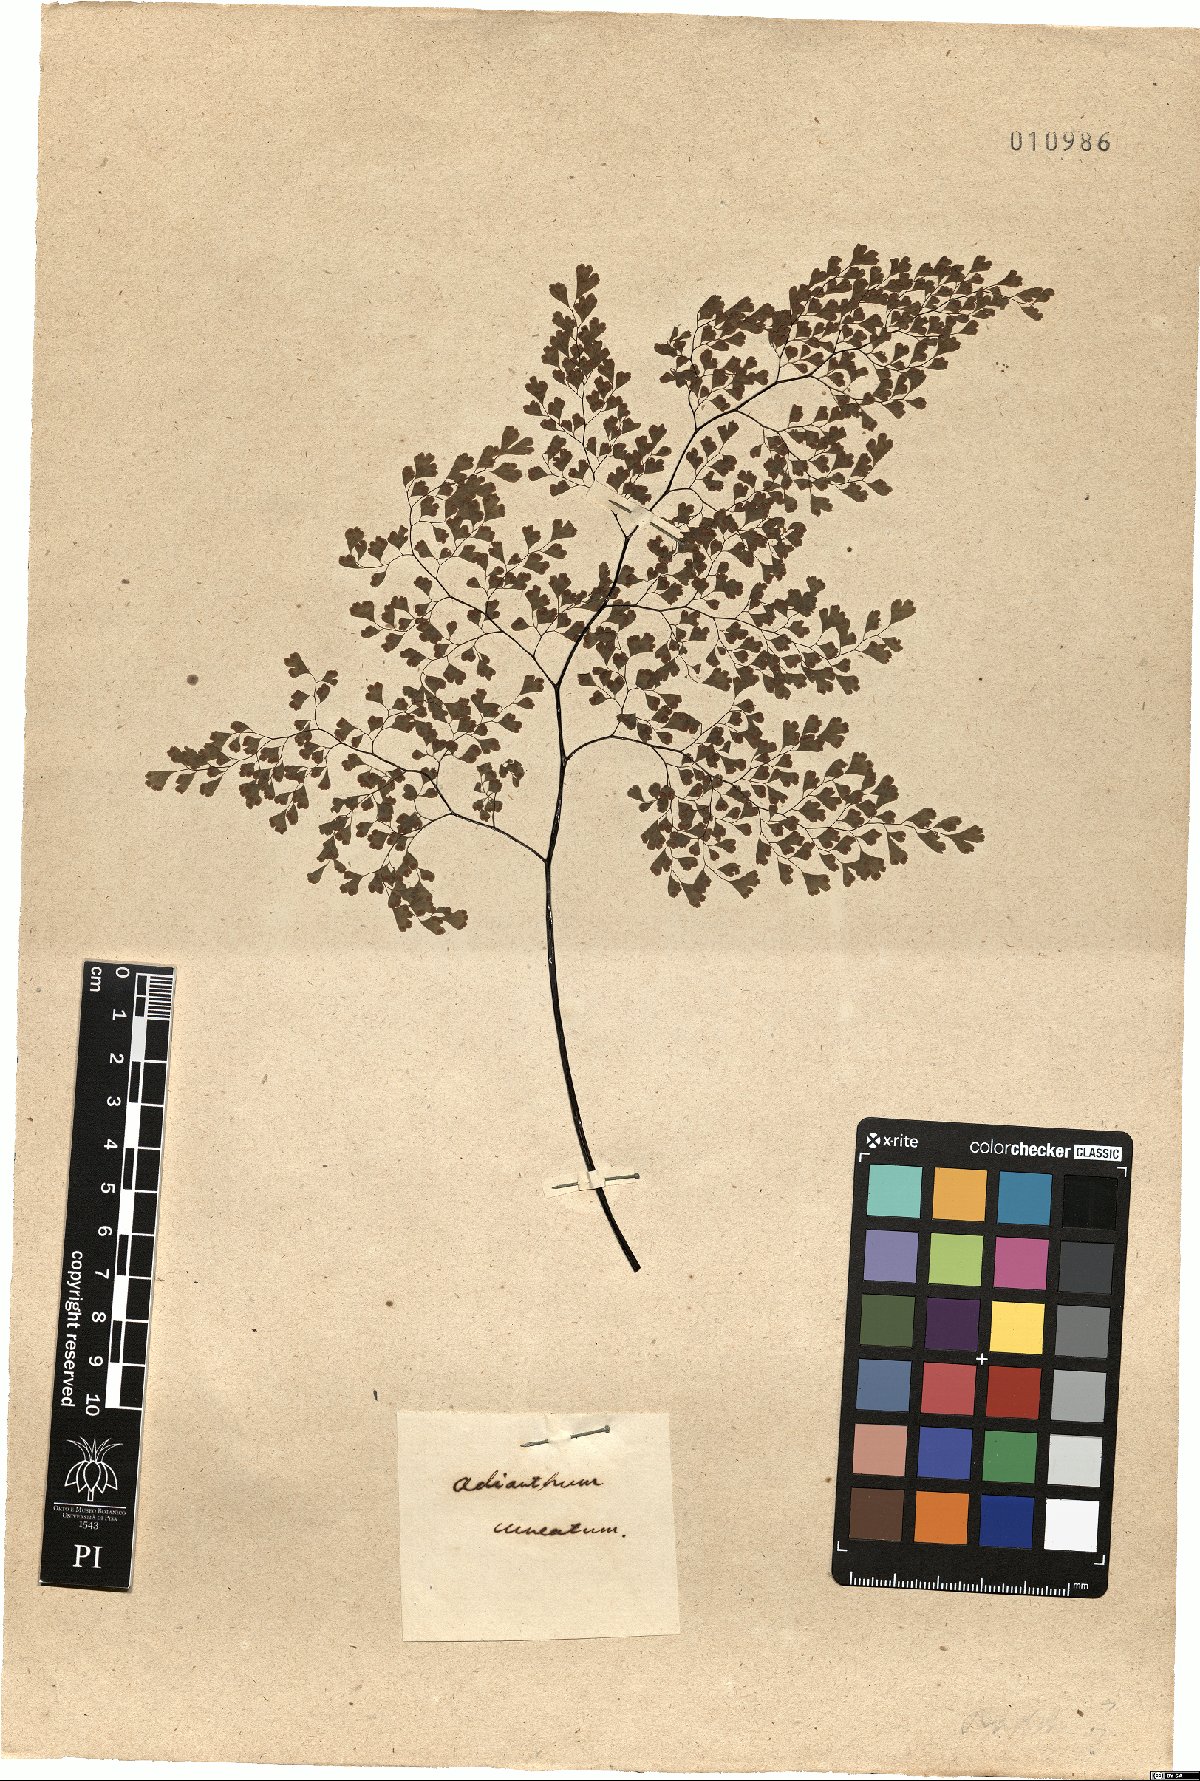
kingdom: Plantae
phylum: Tracheophyta
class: Polypodiopsida
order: Polypodiales
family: Pteridaceae
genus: Adiantum
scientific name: Adiantum raddianum
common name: Delta maidenhair fern
